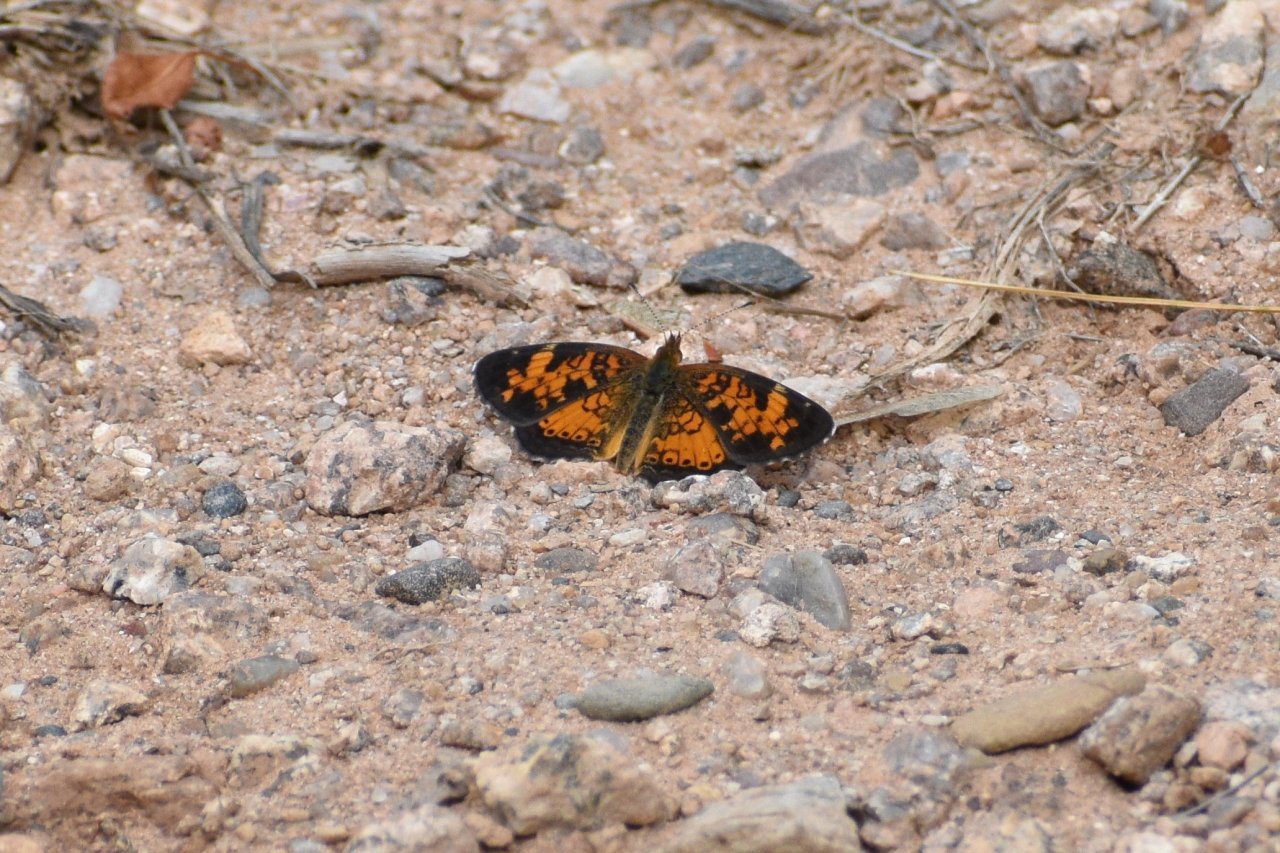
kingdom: Animalia
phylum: Arthropoda
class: Insecta
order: Lepidoptera
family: Nymphalidae
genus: Phyciodes
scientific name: Phyciodes tharos
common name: Northern Crescent
